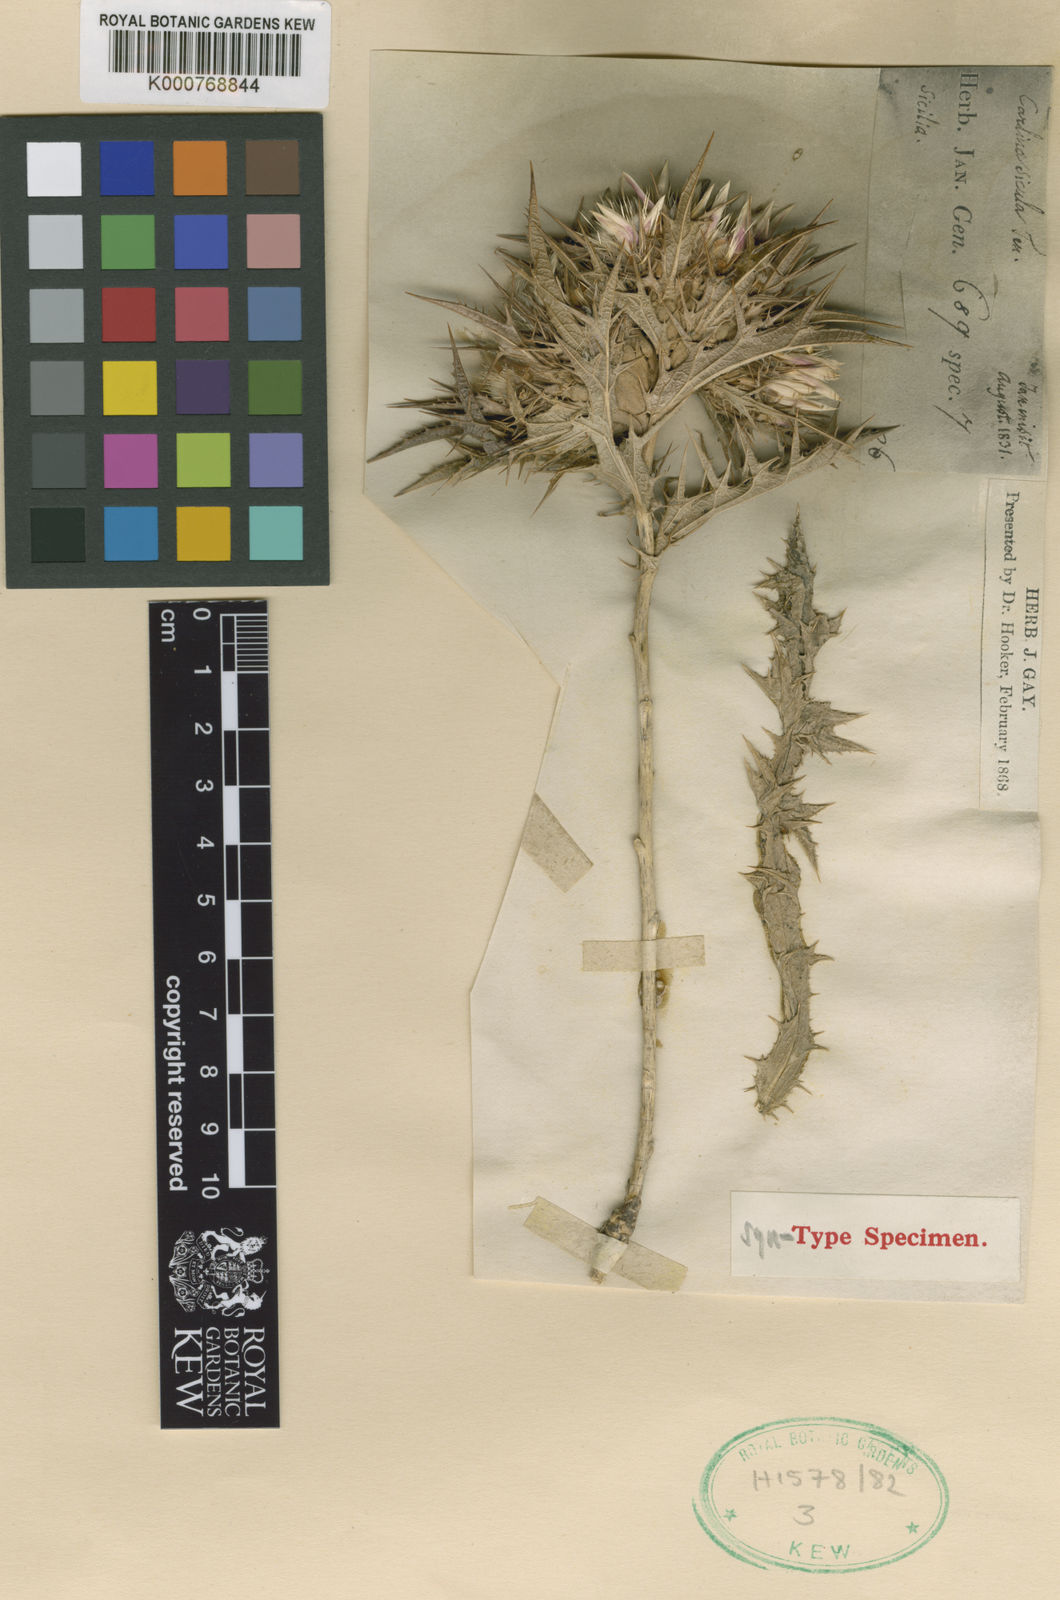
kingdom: Plantae
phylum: Tracheophyta
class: Magnoliopsida
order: Asterales
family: Asteraceae
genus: Carlina
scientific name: Carlina sicula
